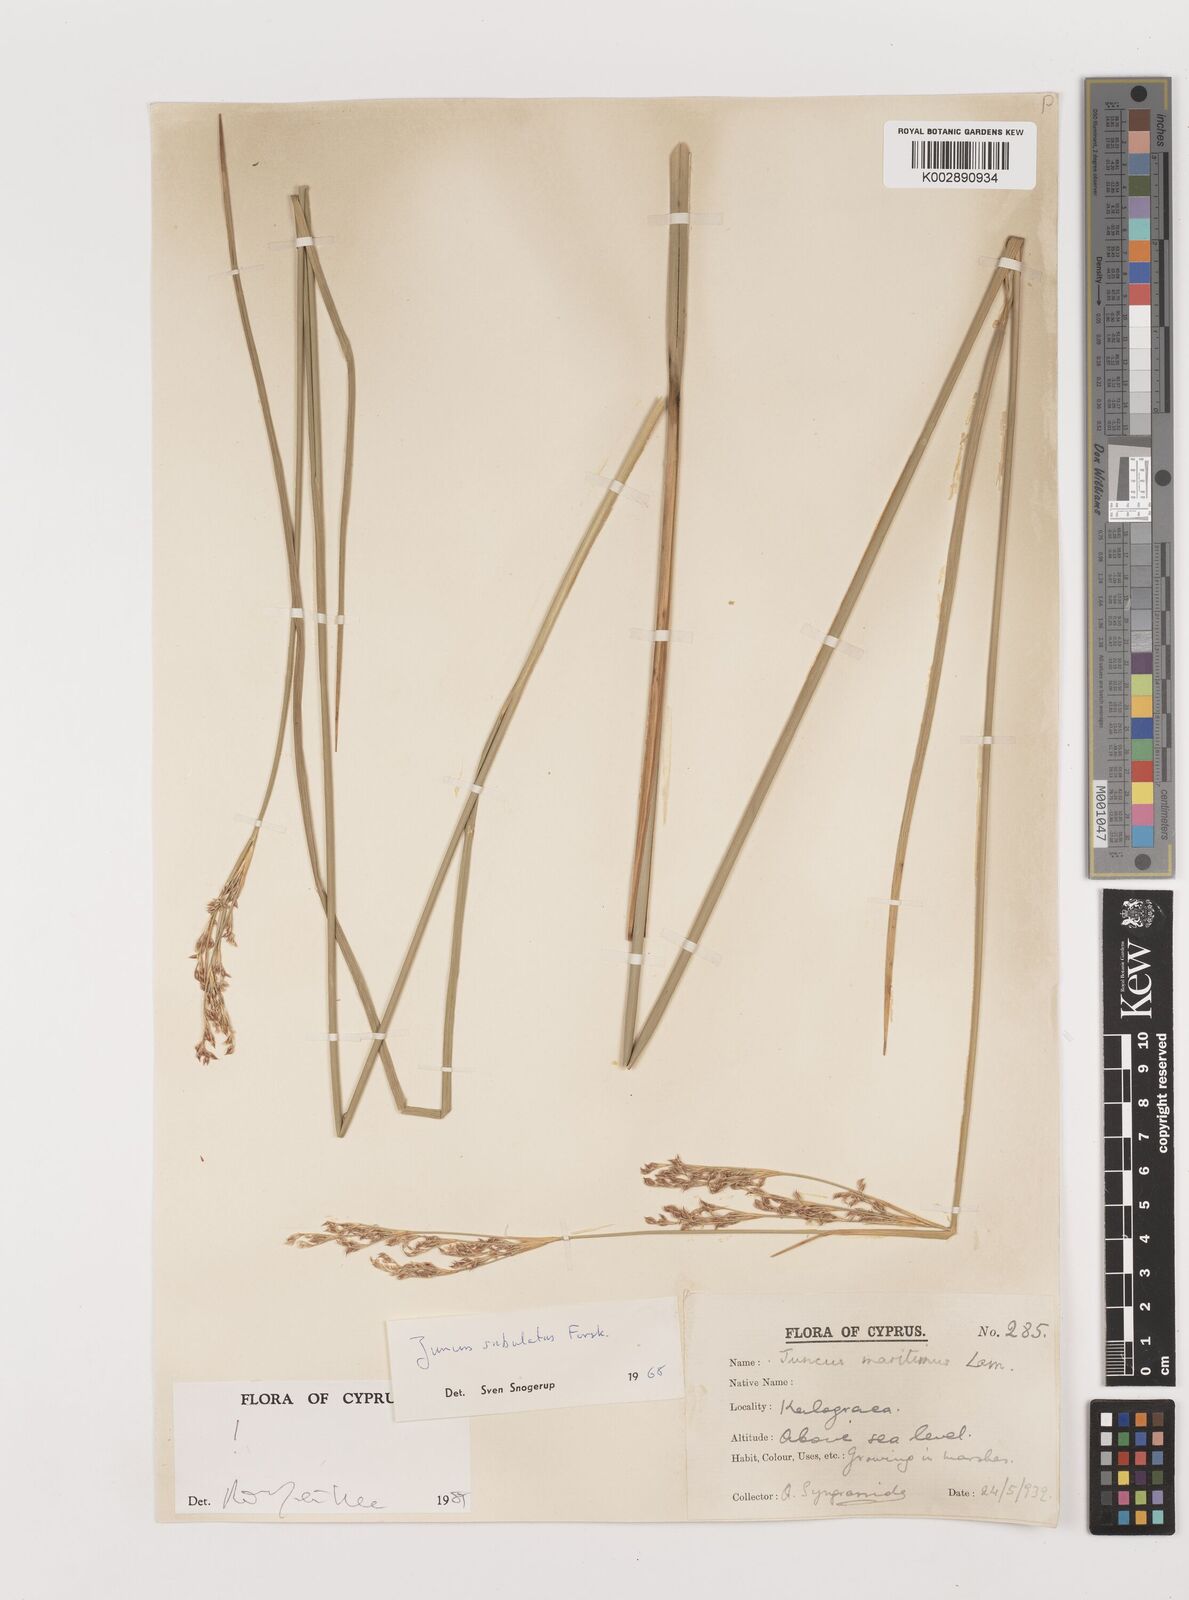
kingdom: Plantae
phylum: Tracheophyta
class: Liliopsida
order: Poales
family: Juncaceae
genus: Juncus
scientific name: Juncus subulatus
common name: Somerset rush
